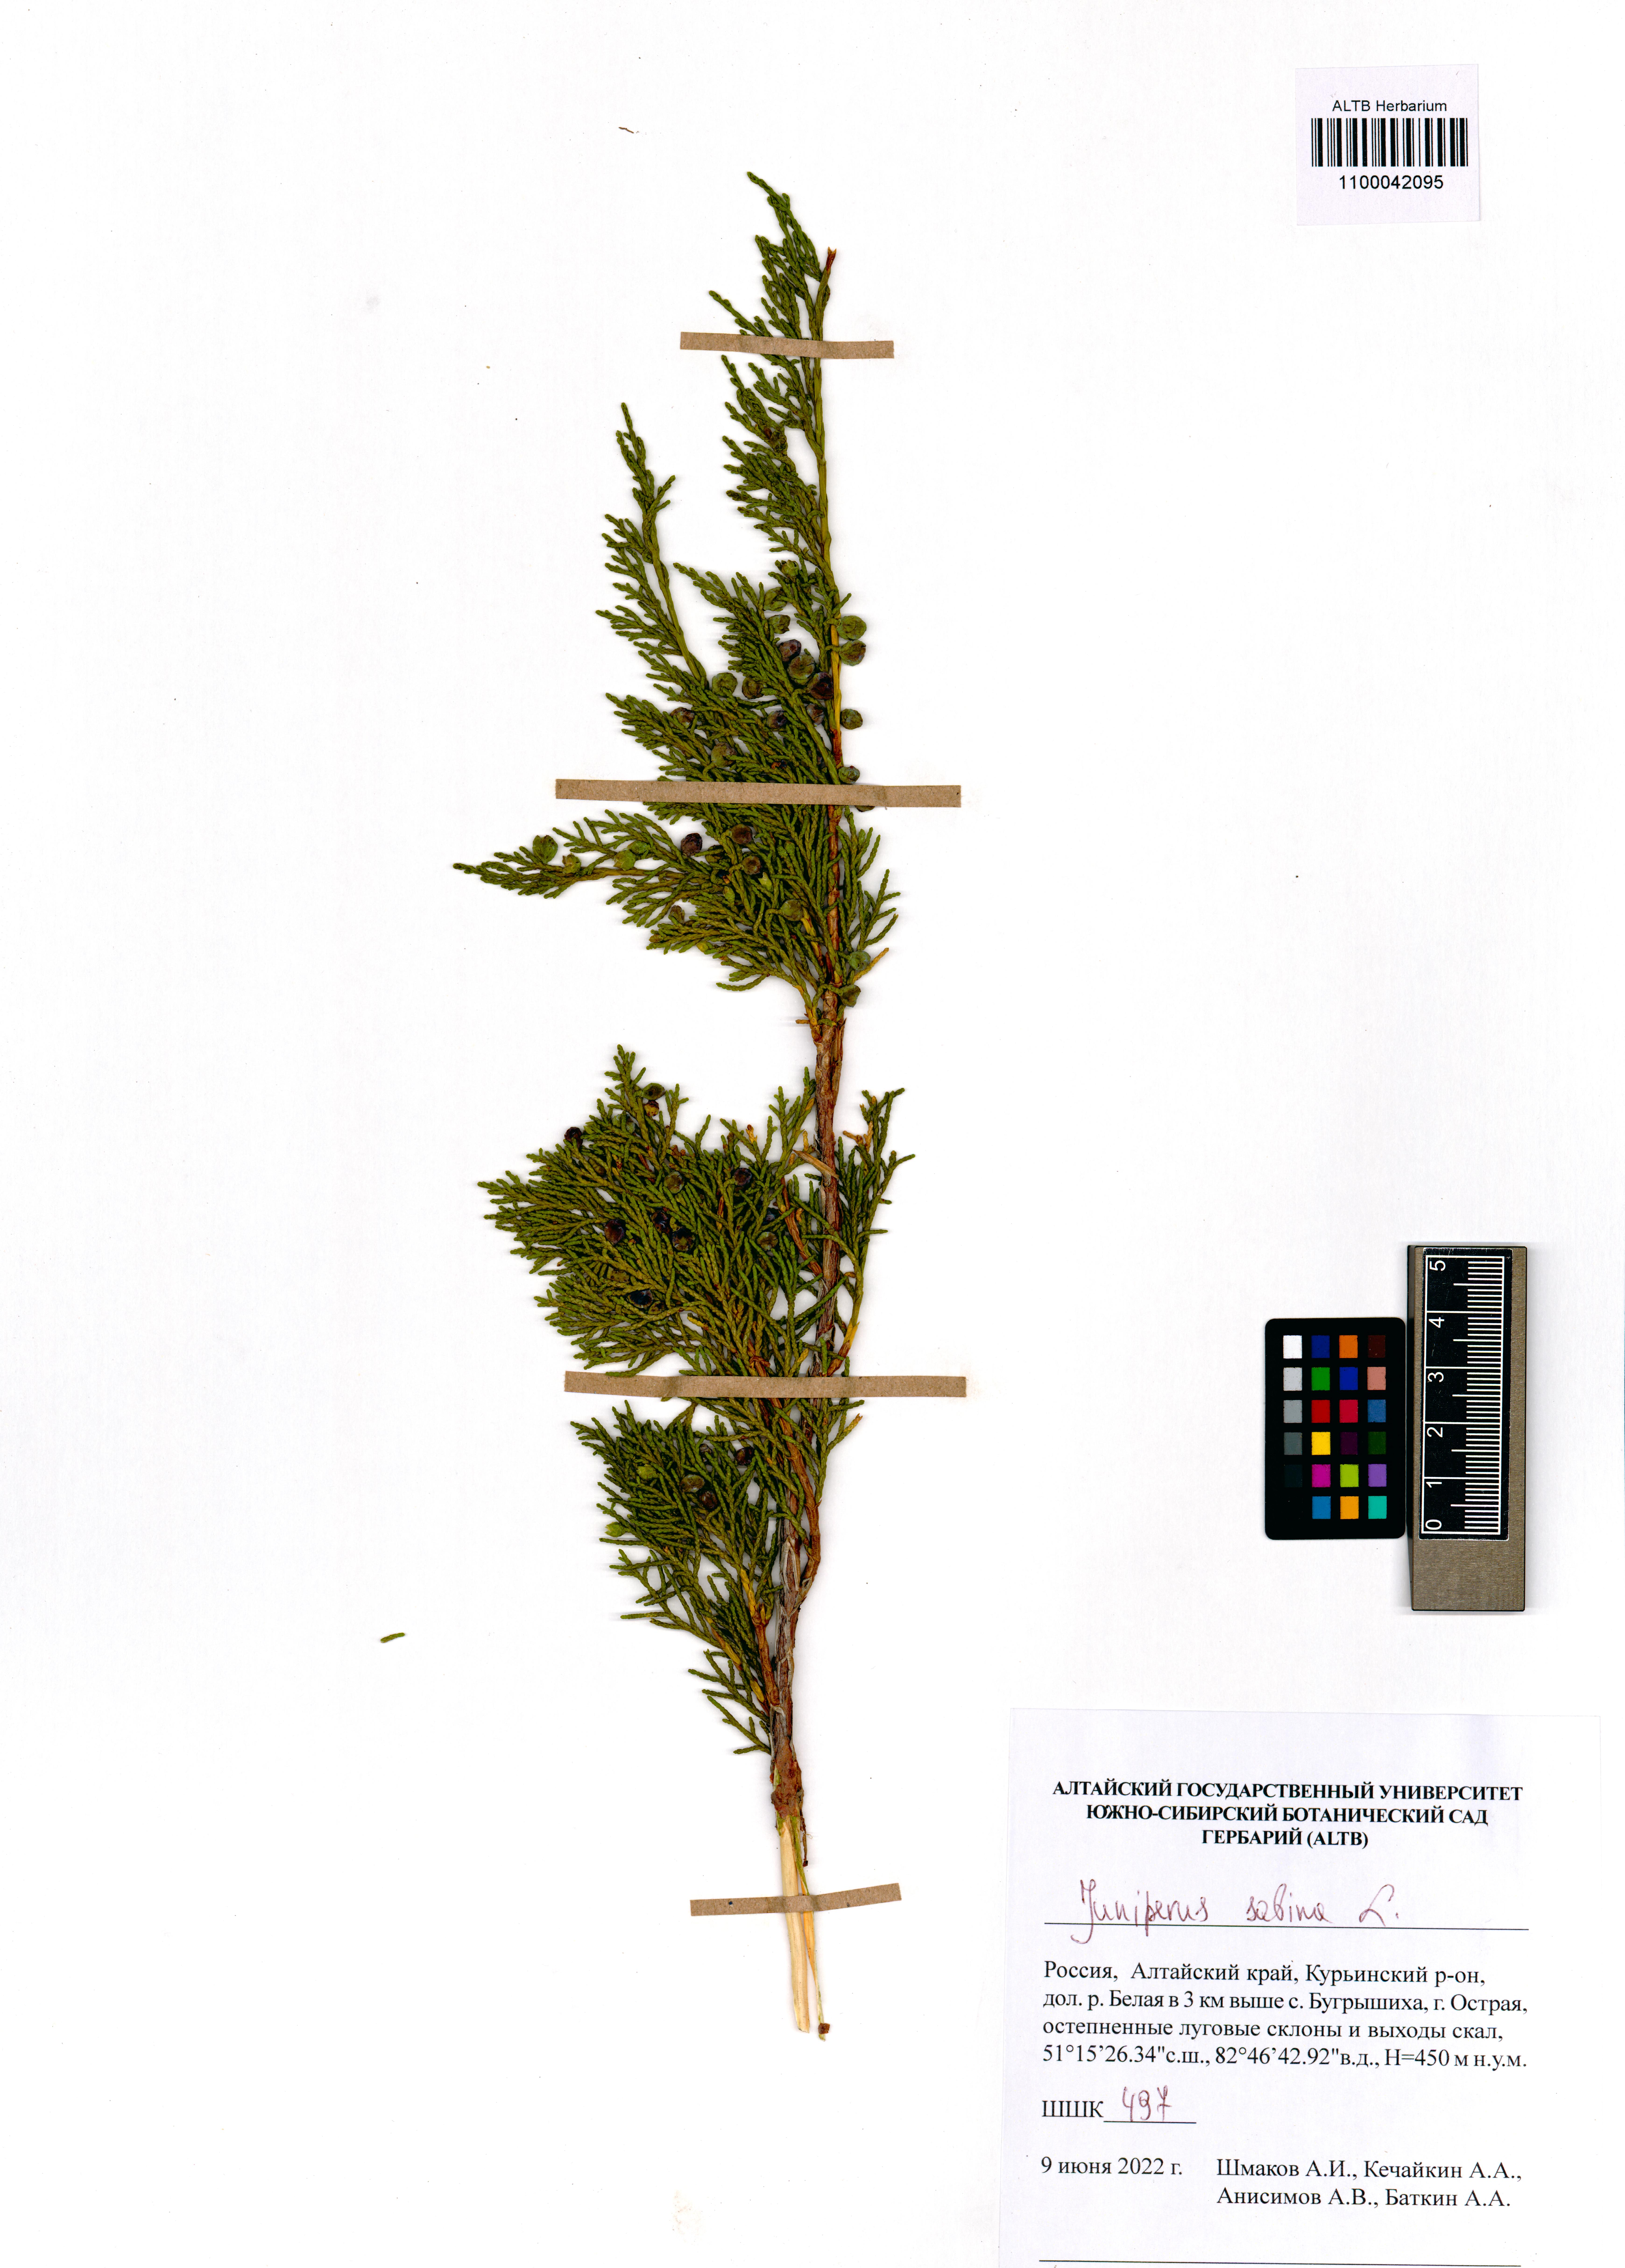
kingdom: Plantae
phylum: Tracheophyta
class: Pinopsida
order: Pinales
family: Cupressaceae
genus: Juniperus
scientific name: Juniperus sabina
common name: Savin
